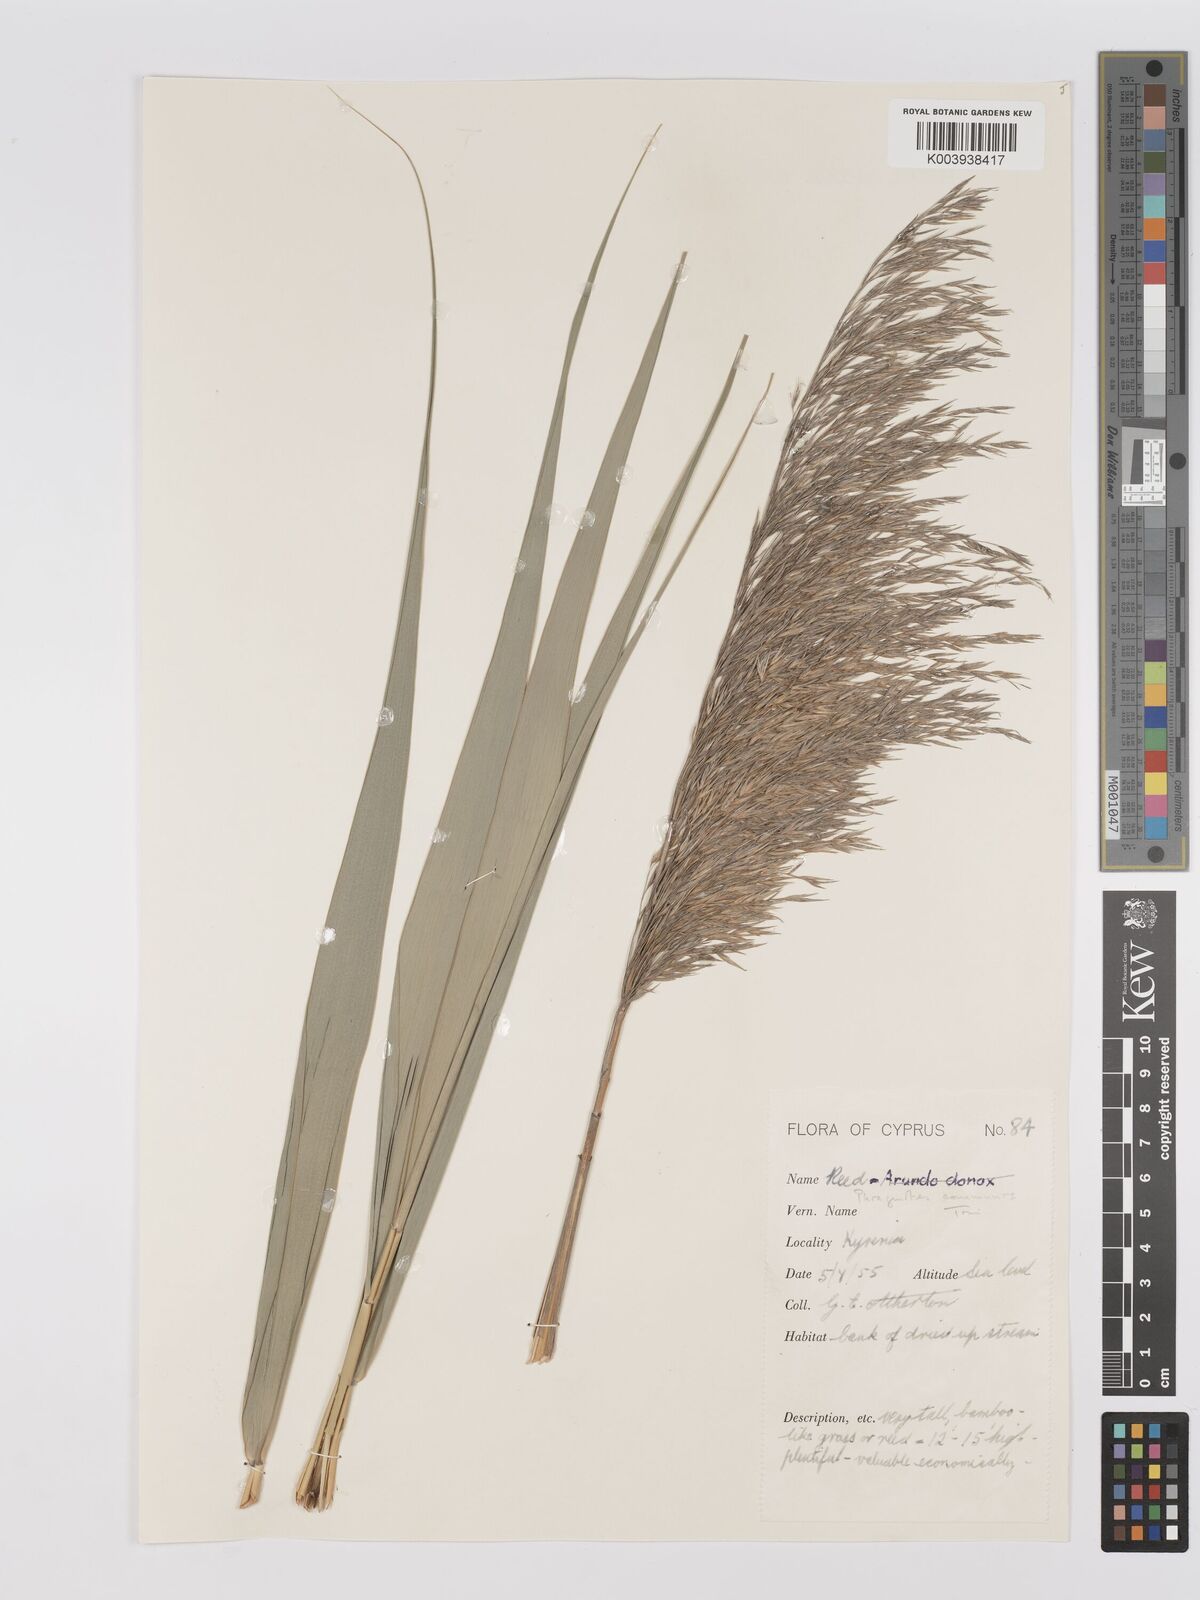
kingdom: Plantae
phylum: Tracheophyta
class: Liliopsida
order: Poales
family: Poaceae
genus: Phragmites
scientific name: Phragmites australis
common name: Common reed
